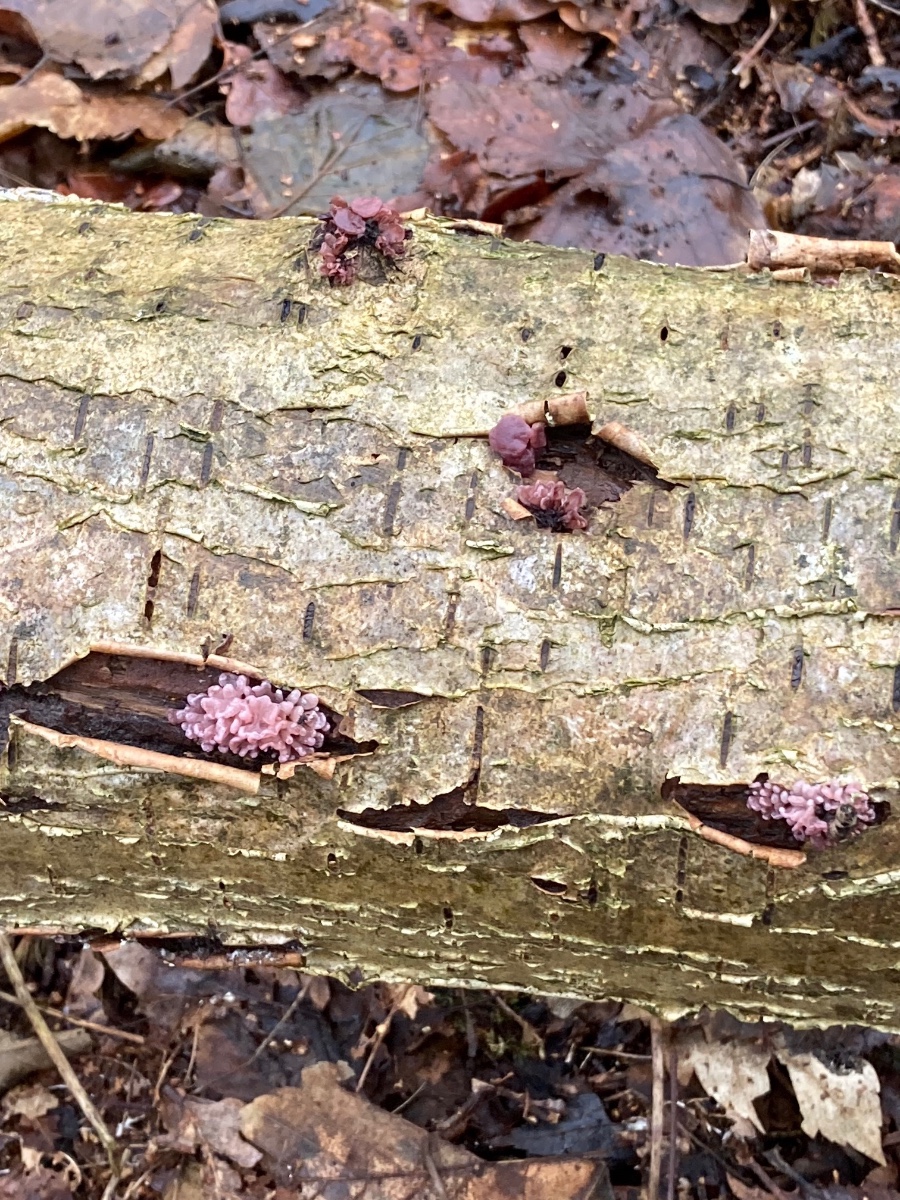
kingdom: Fungi
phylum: Ascomycota
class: Leotiomycetes
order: Helotiales
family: Gelatinodiscaceae
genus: Ascocoryne
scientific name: Ascocoryne sarcoides
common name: rødlilla sejskive
